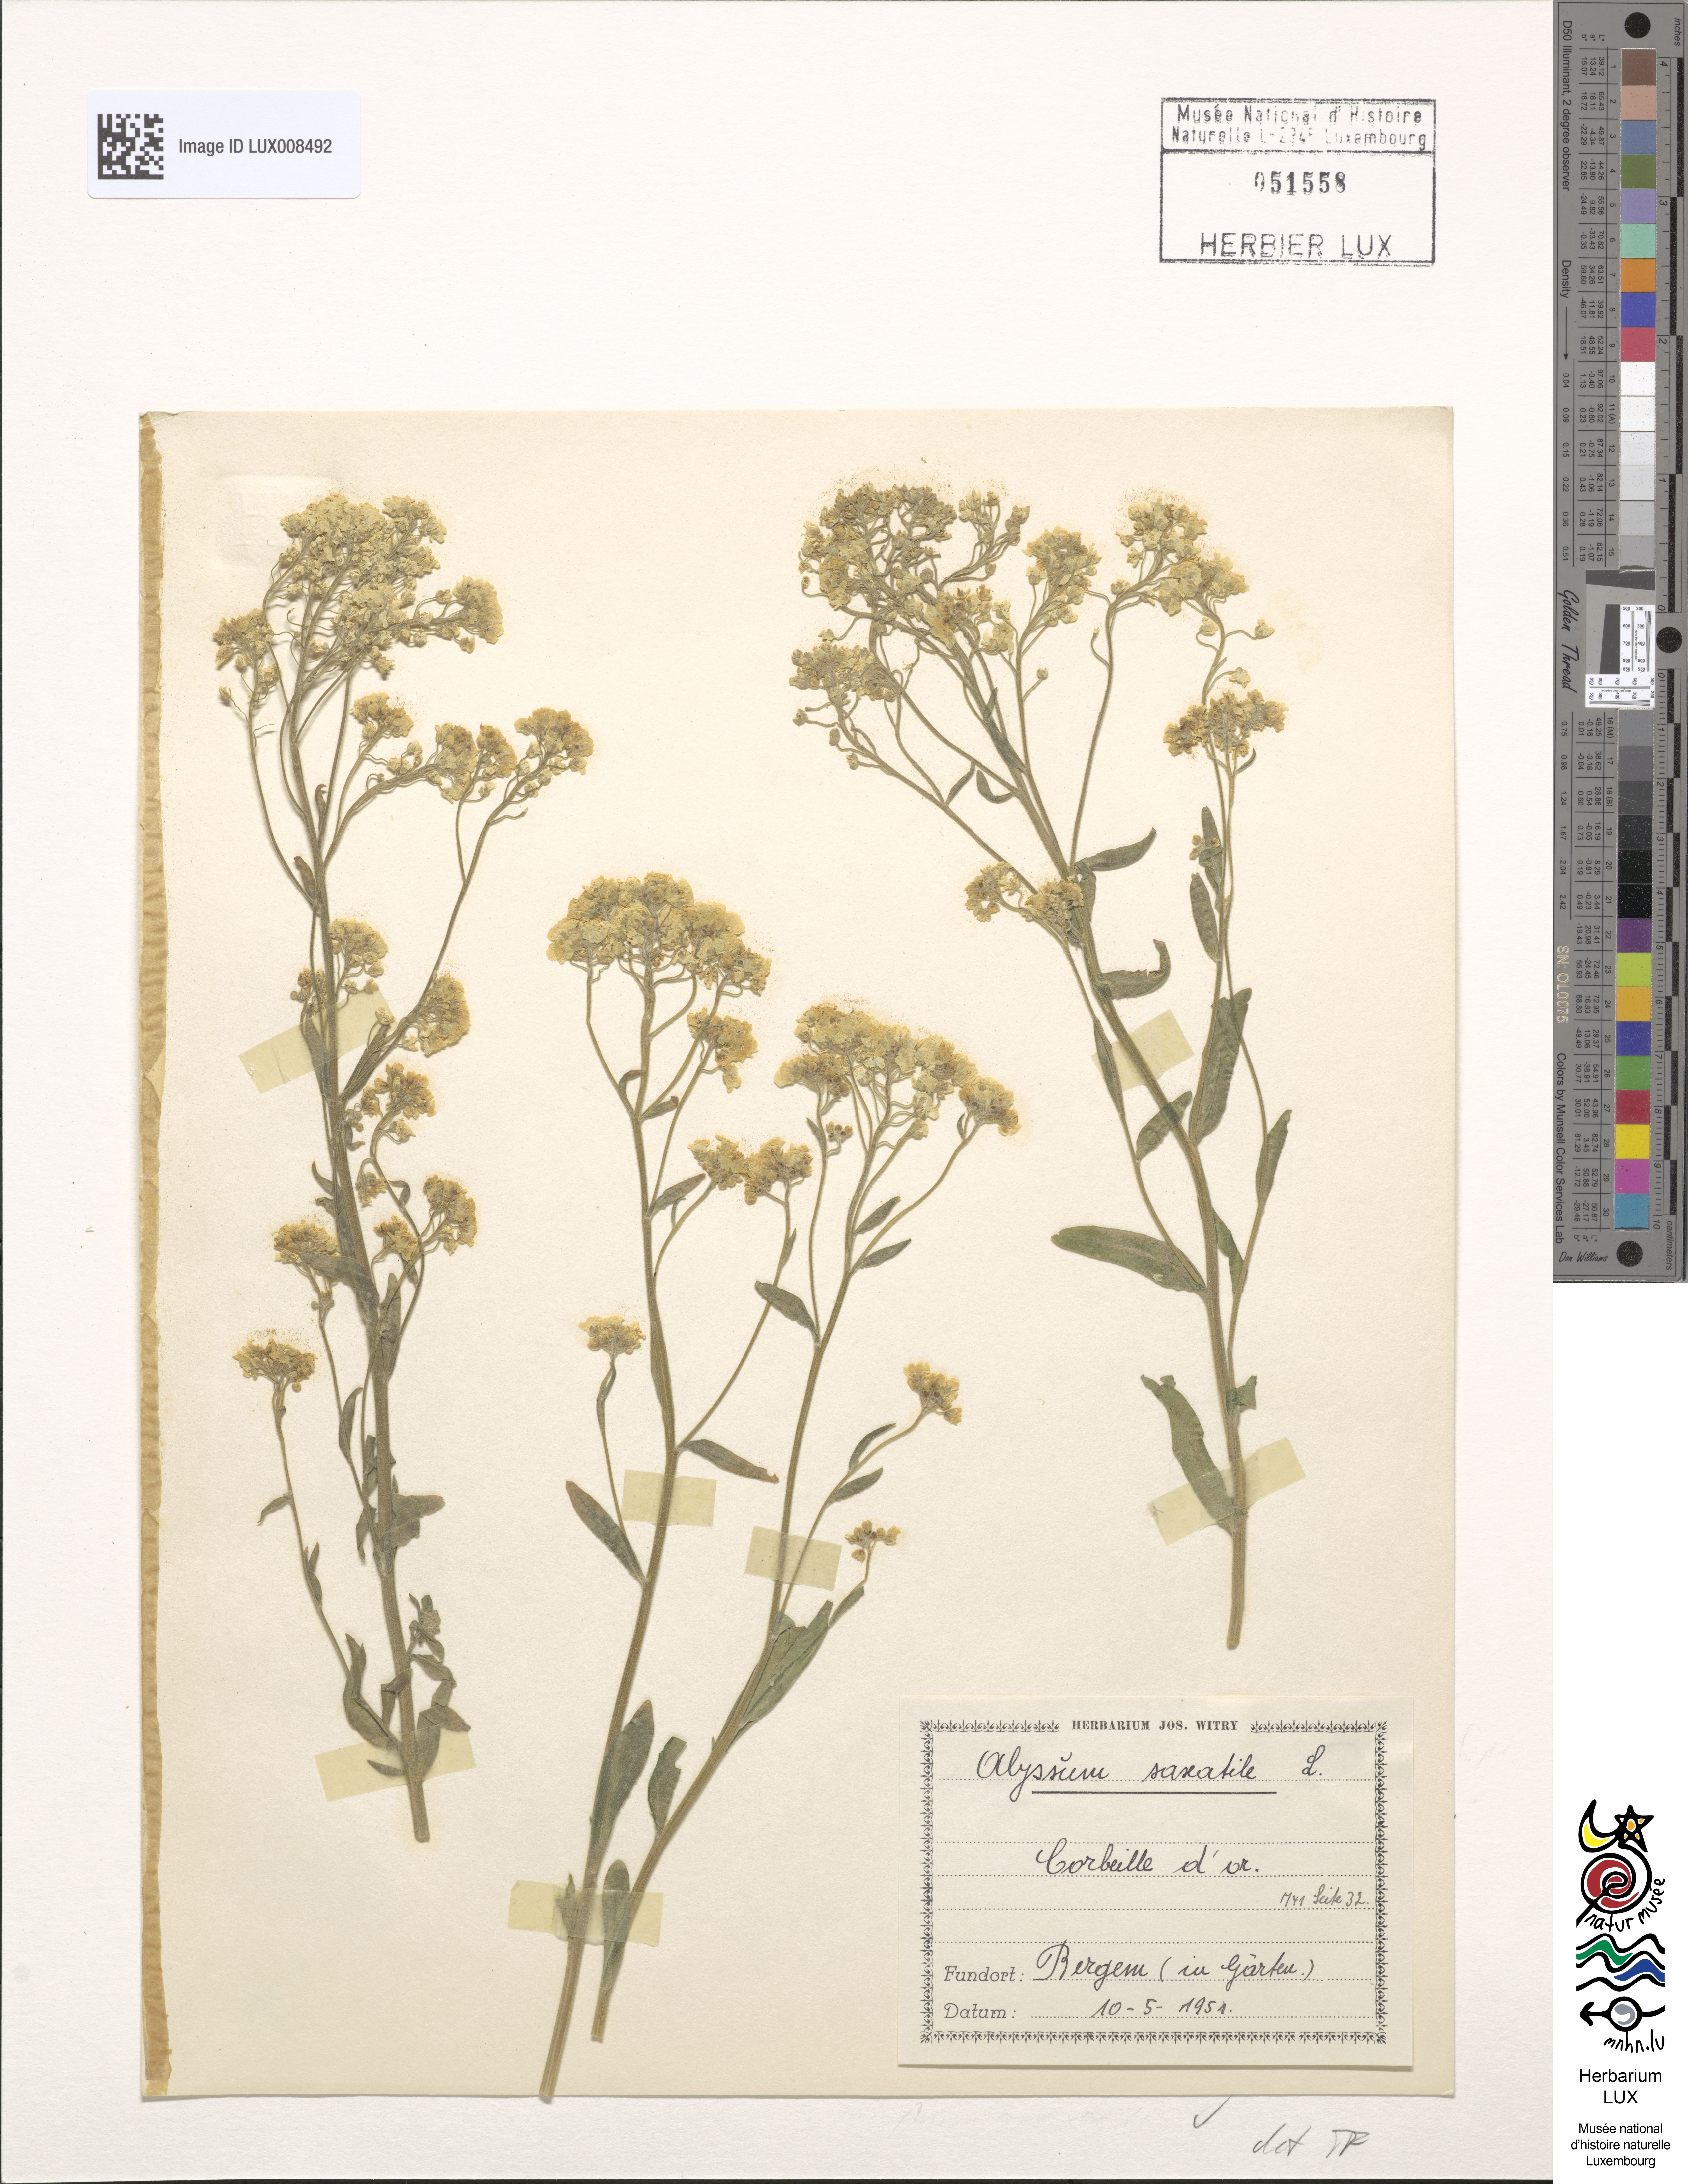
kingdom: Plantae
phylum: Tracheophyta
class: Magnoliopsida
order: Brassicales
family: Brassicaceae
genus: Alyssum
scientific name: Alyssum saxatile
